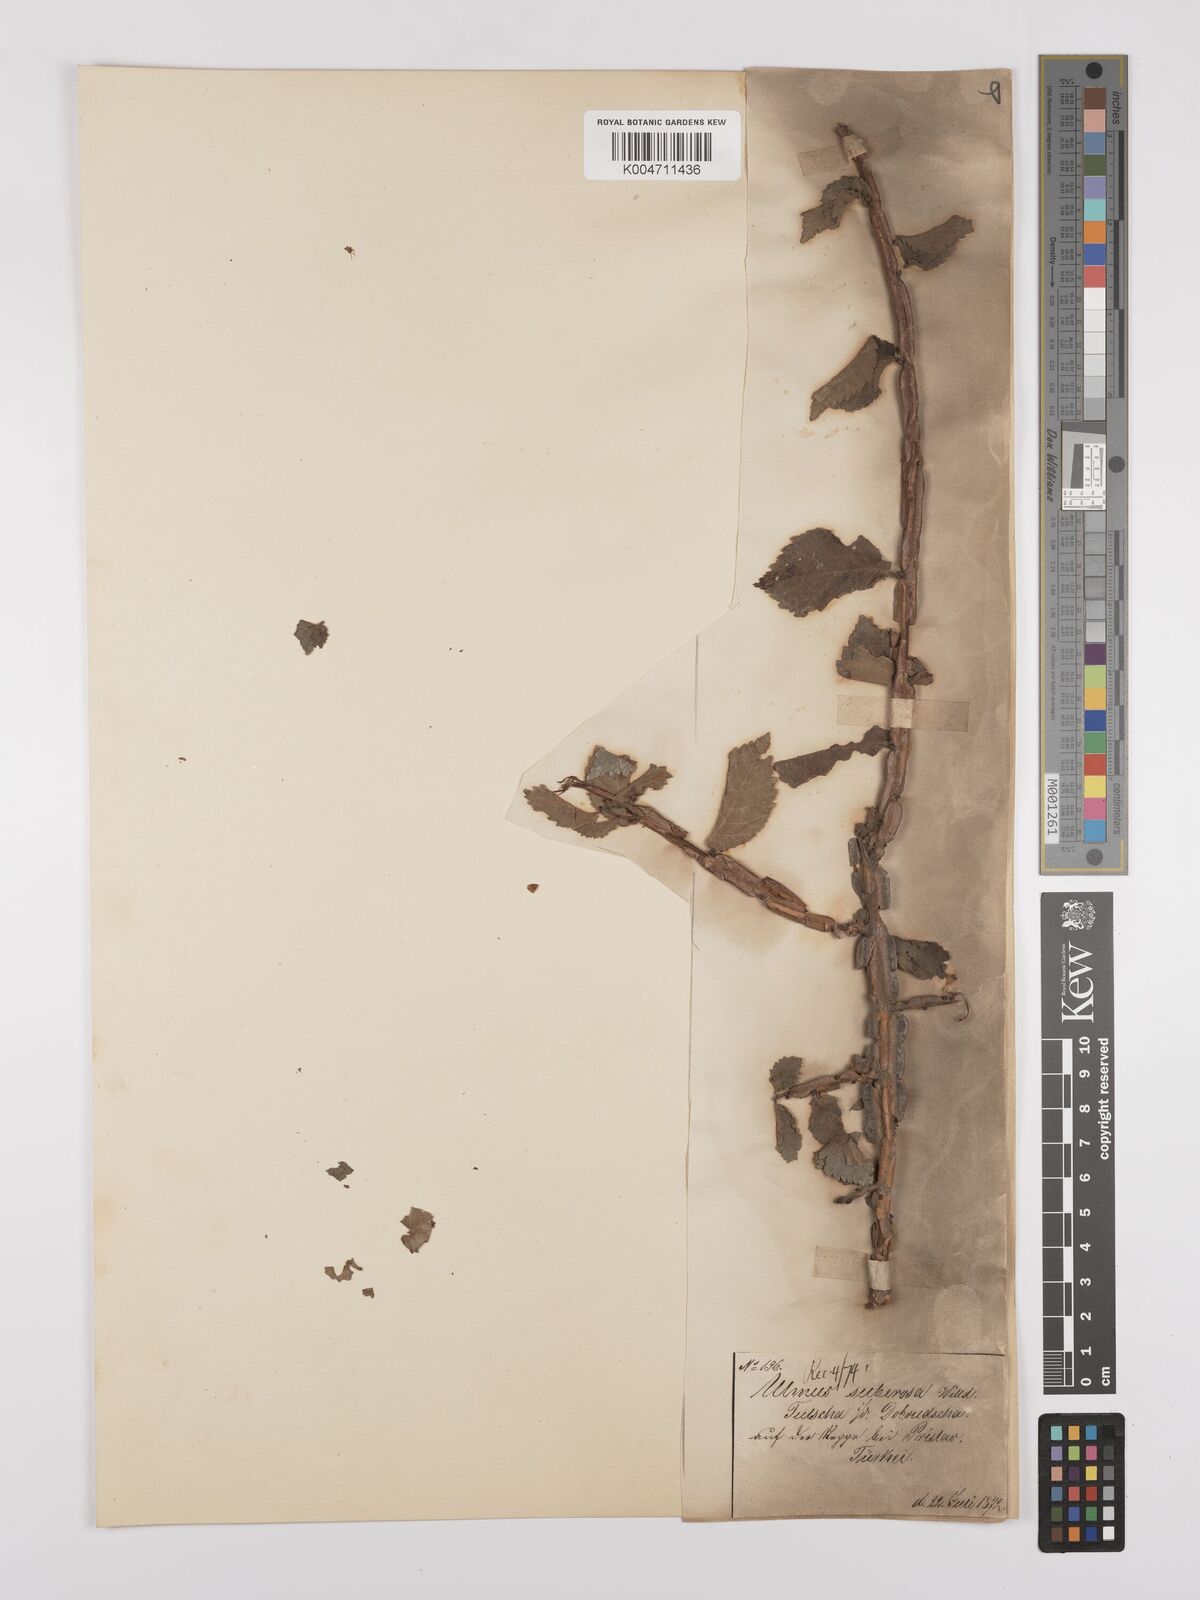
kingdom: Plantae
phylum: Tracheophyta
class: Magnoliopsida
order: Rosales
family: Ulmaceae
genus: Ulmus
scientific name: Ulmus minor
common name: Small-leaved elm
